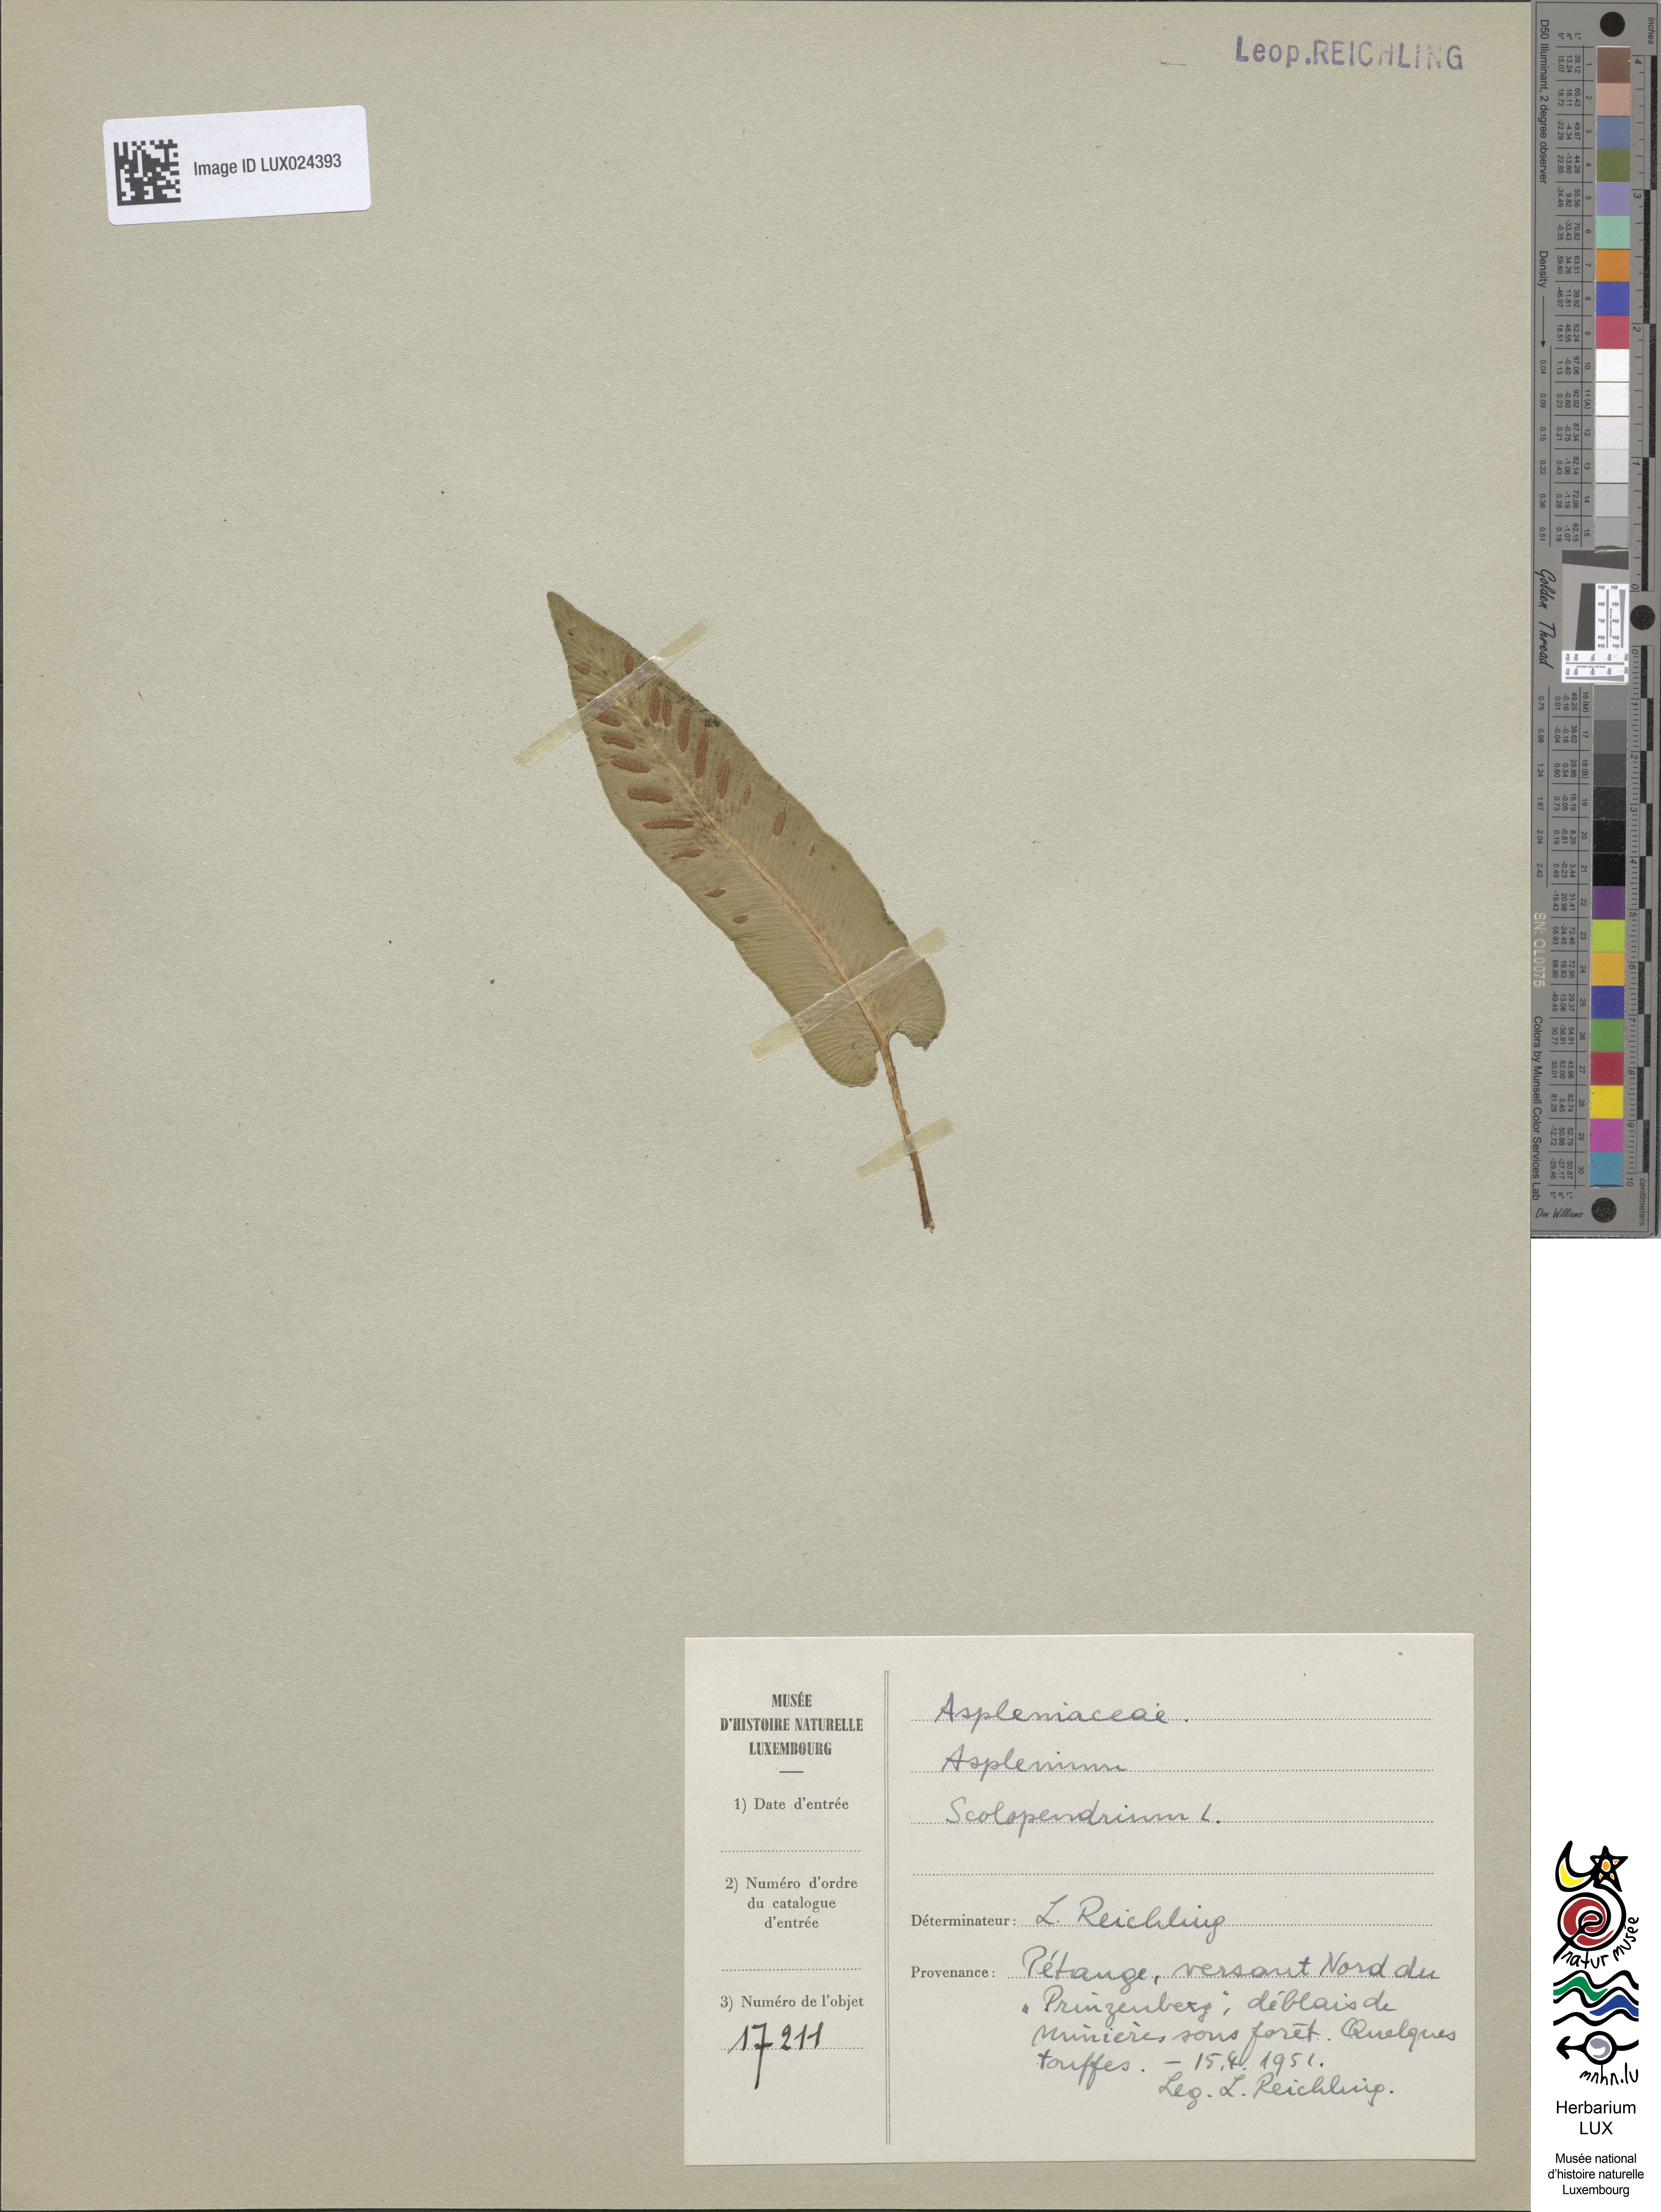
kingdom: Plantae
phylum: Tracheophyta
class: Polypodiopsida
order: Polypodiales
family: Aspleniaceae
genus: Asplenium
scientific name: Asplenium scolopendrium
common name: Hart's-tongue fern
